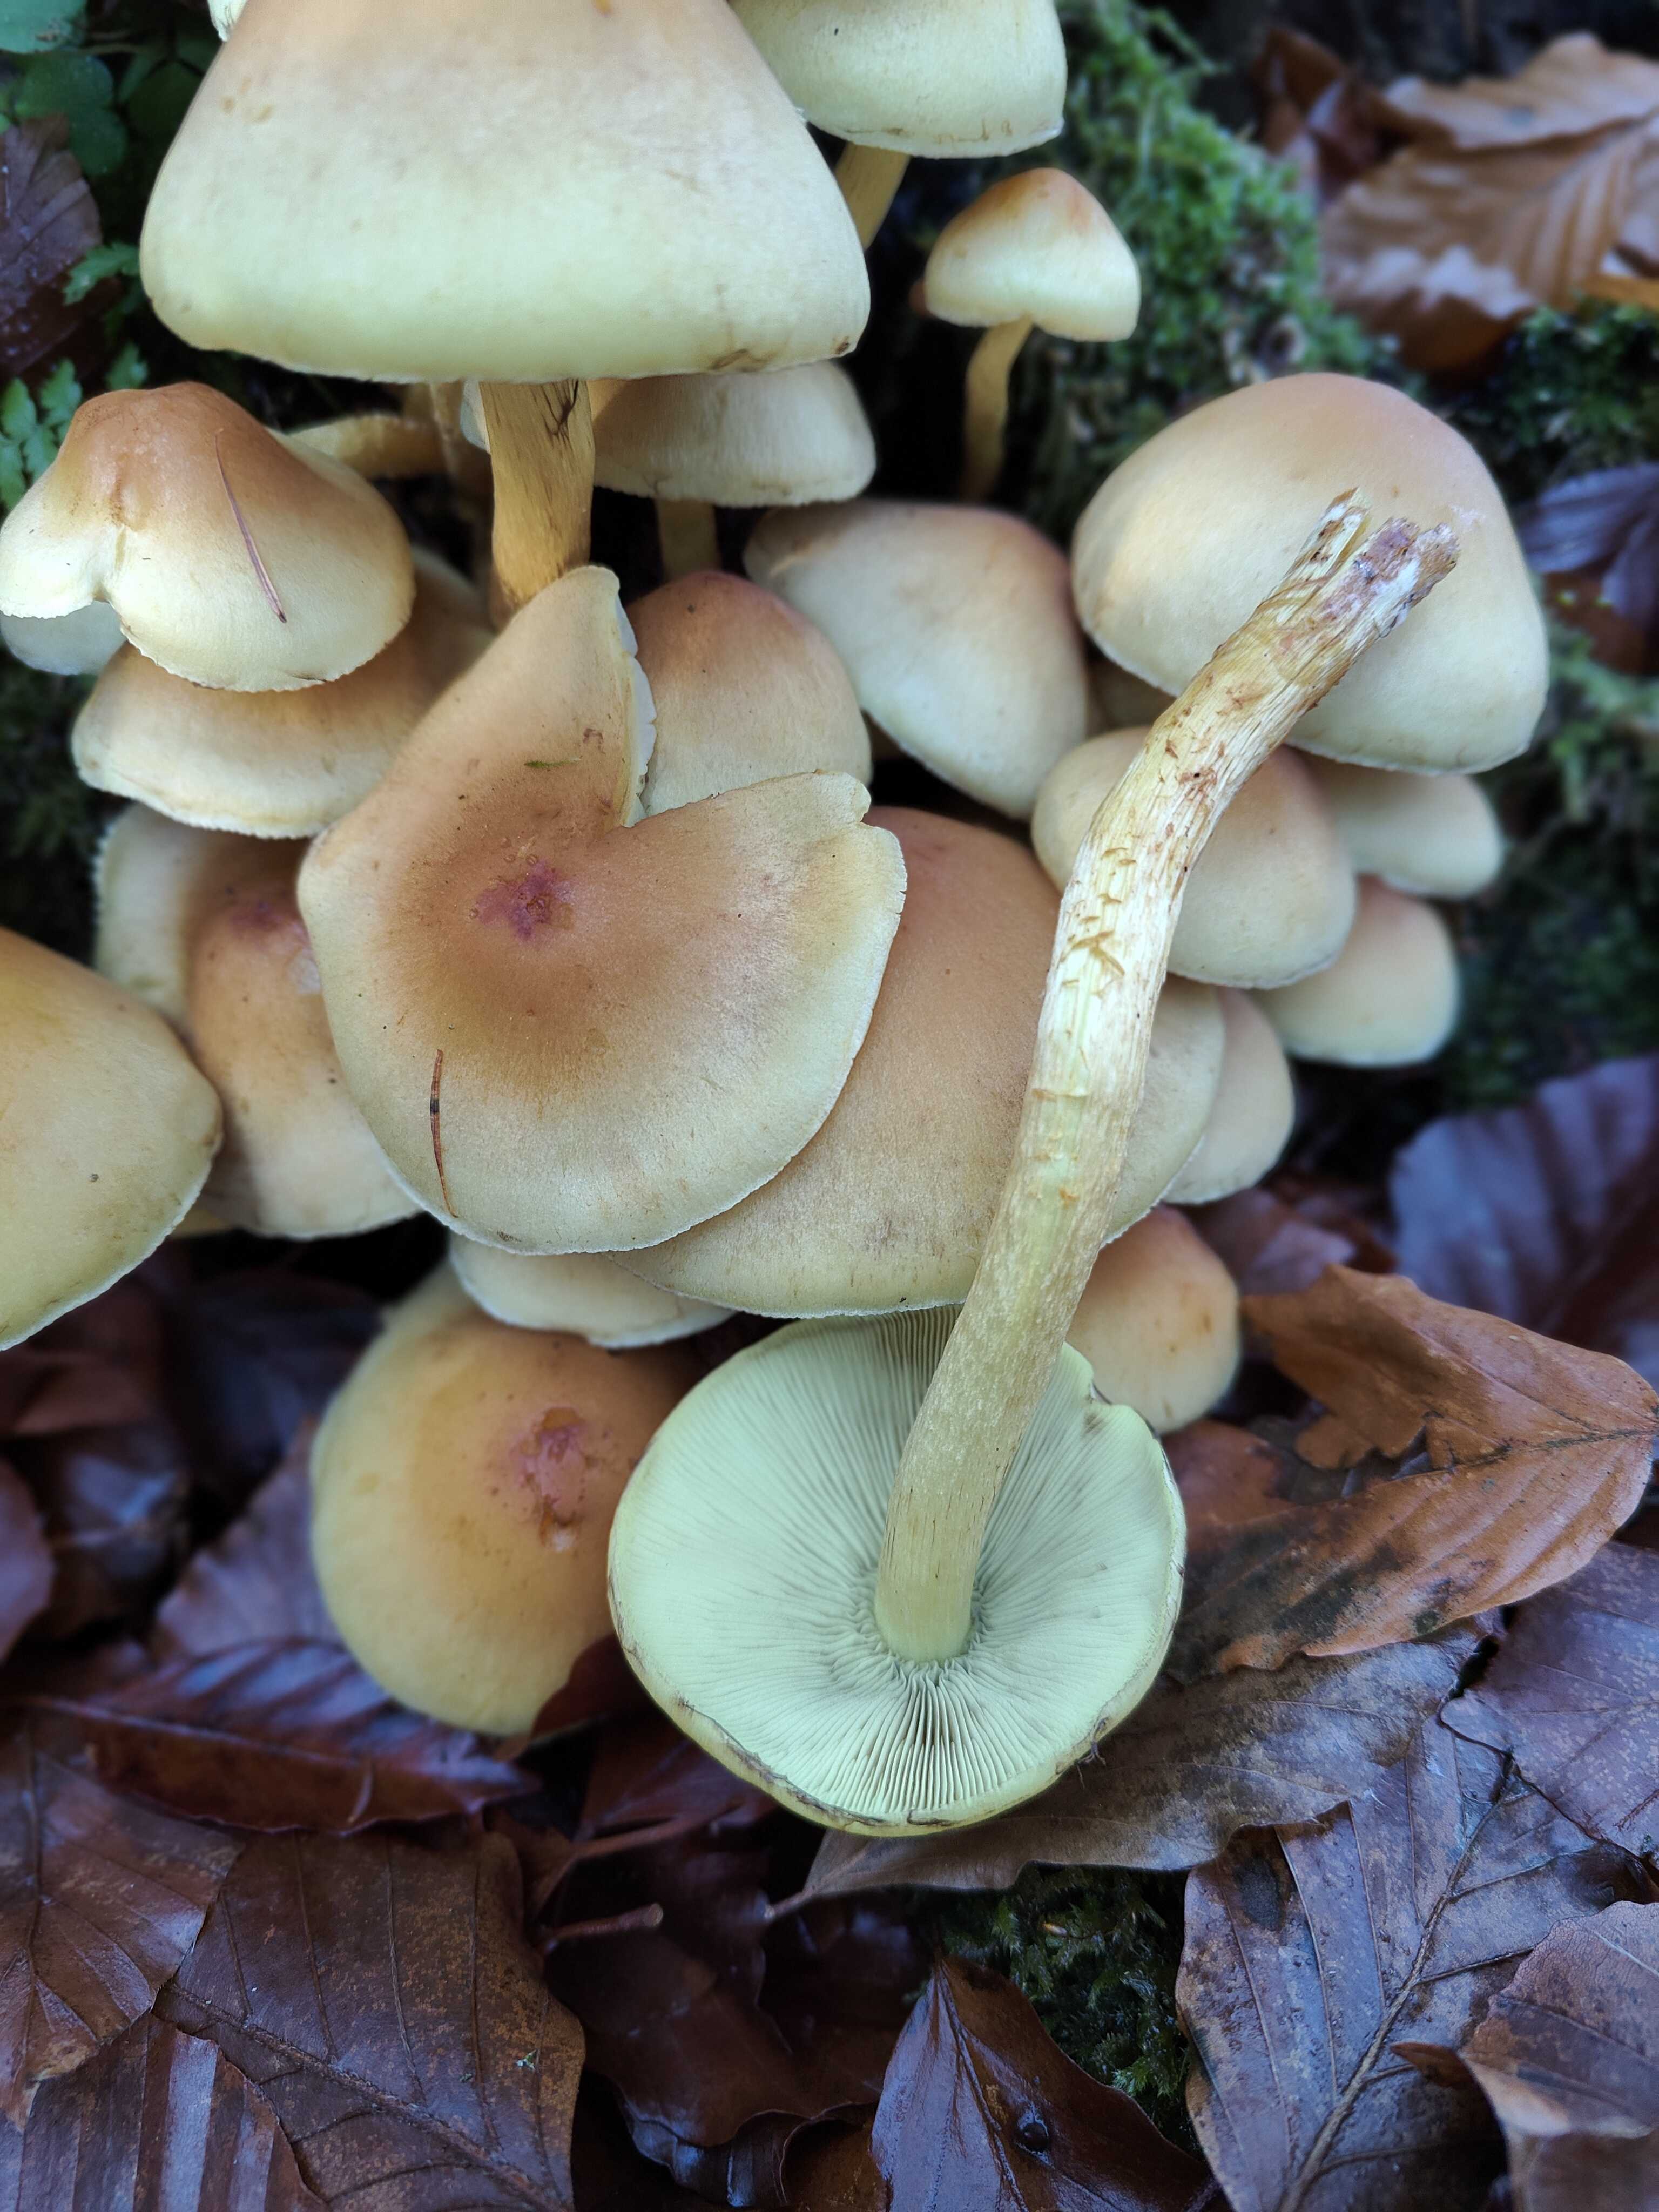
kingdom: Fungi
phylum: Basidiomycota
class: Agaricomycetes
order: Agaricales
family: Strophariaceae
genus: Hypholoma
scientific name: Hypholoma fasciculare
